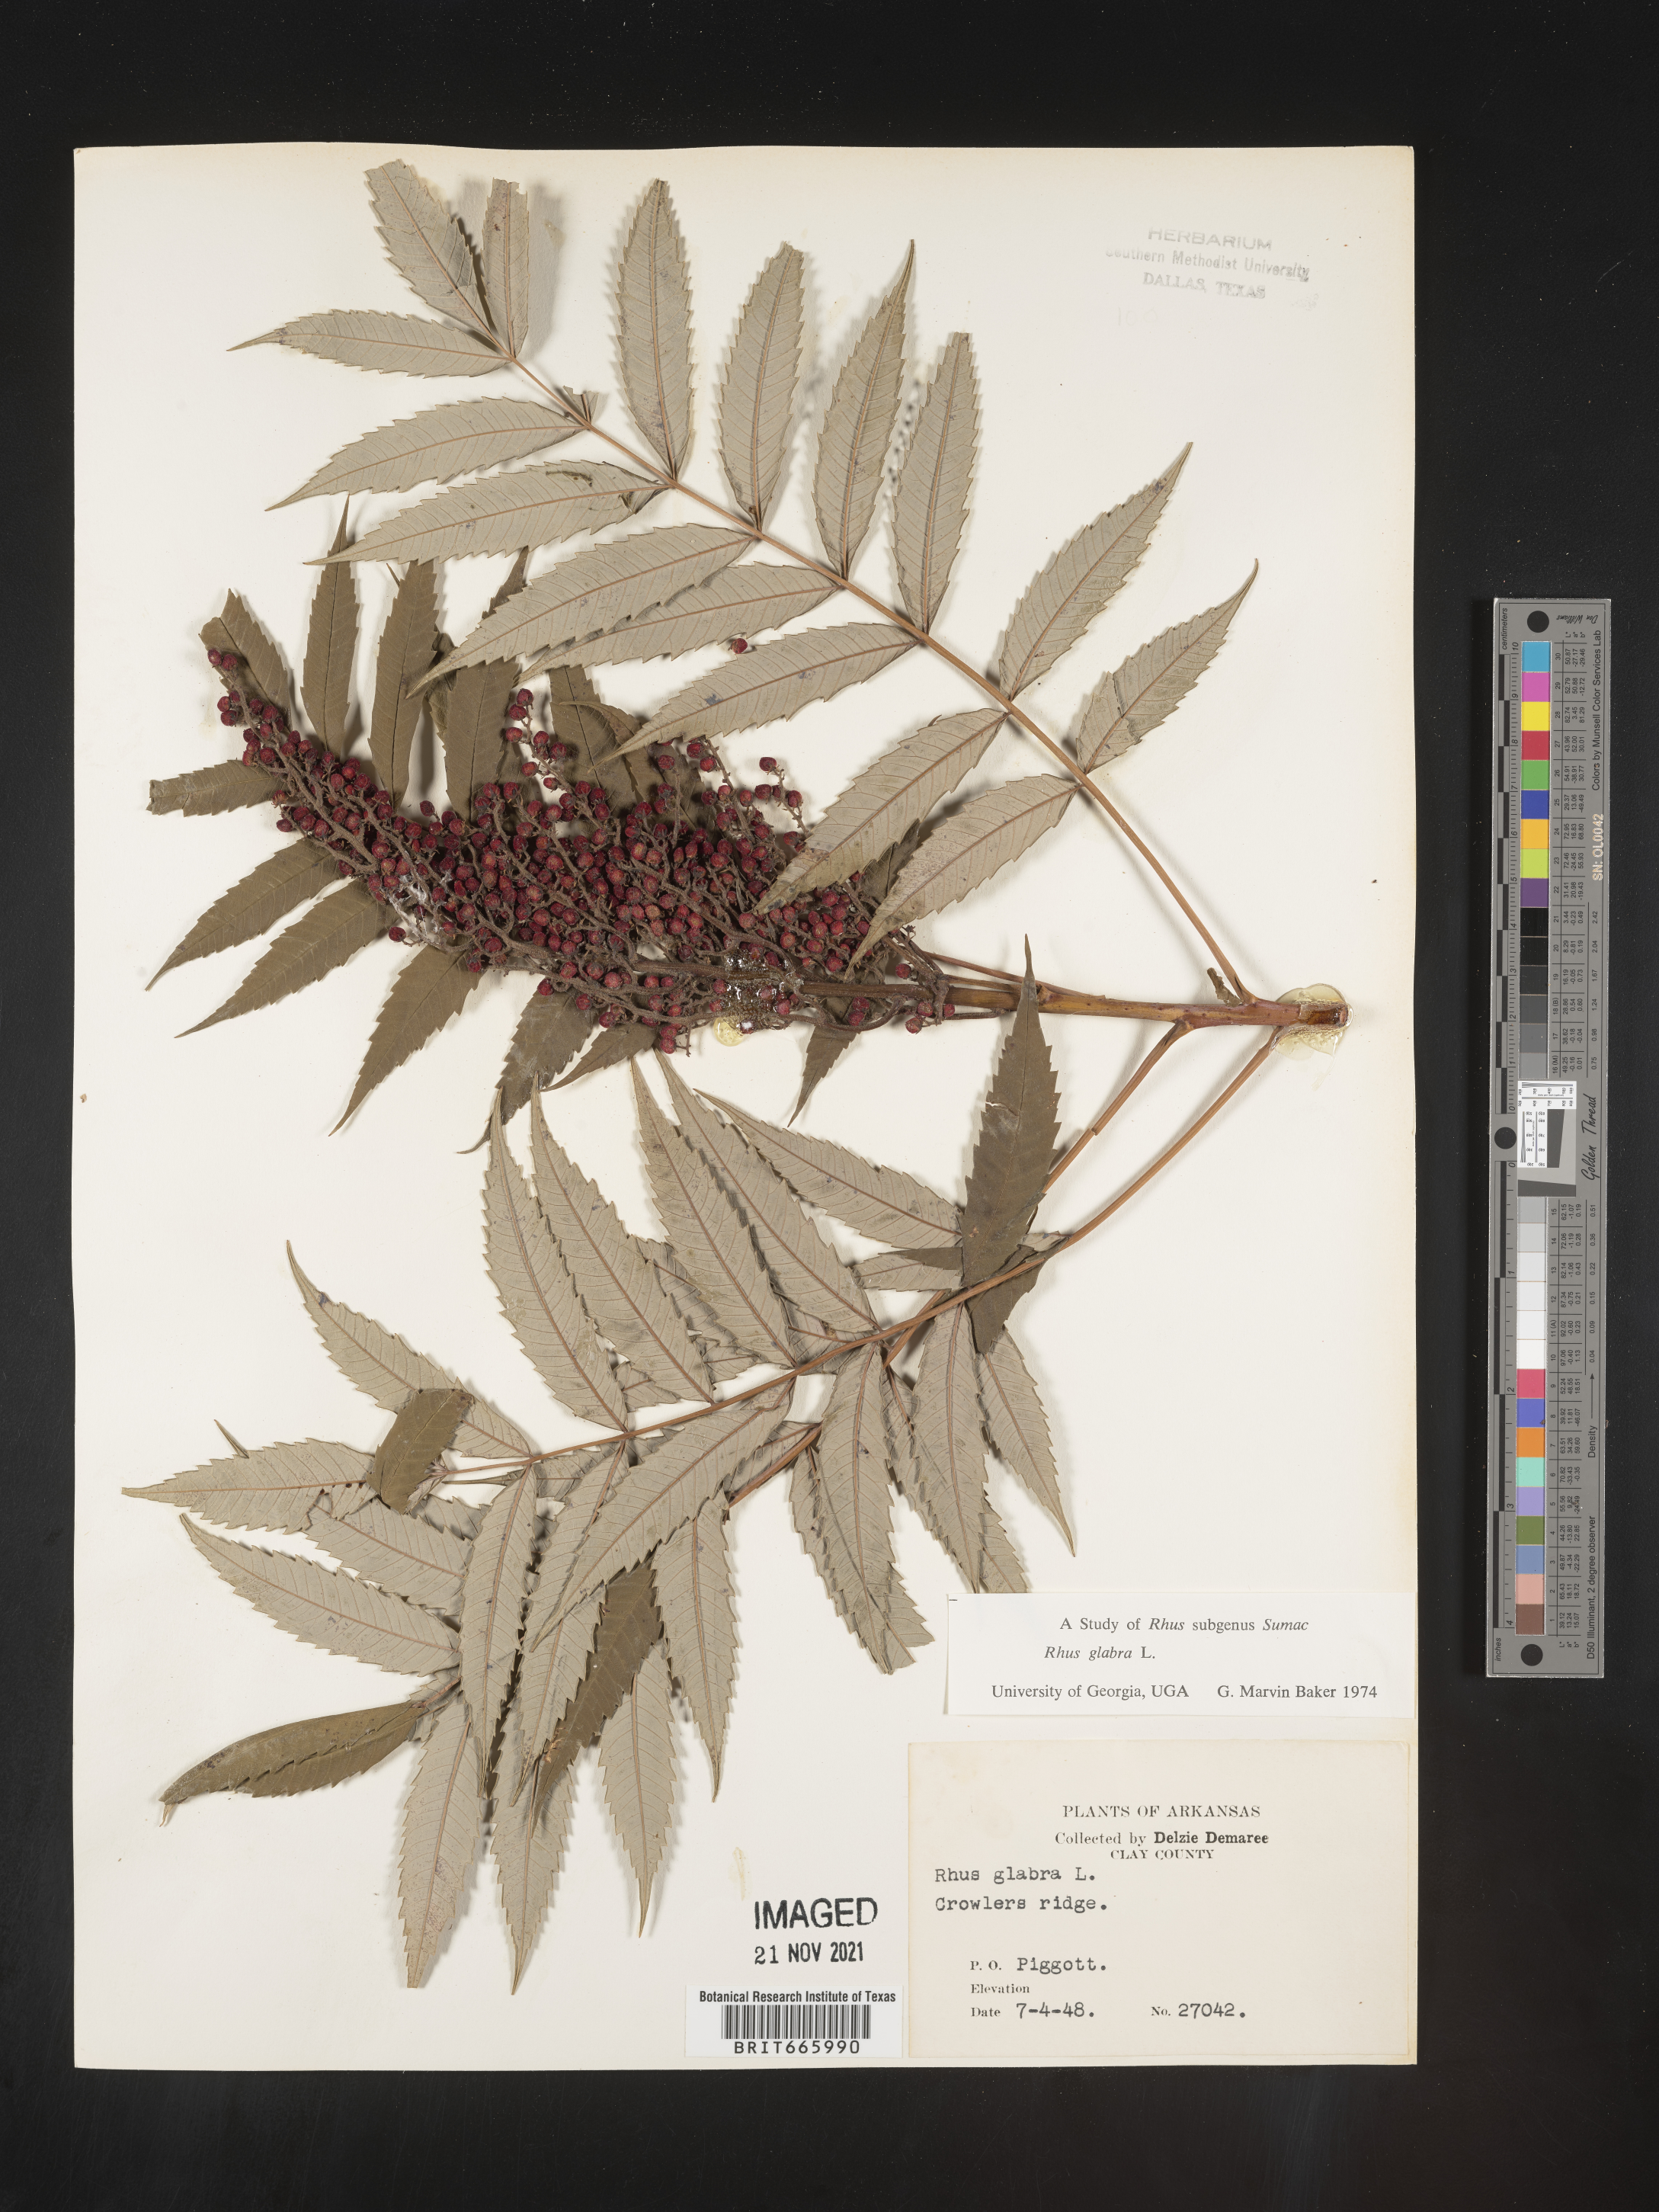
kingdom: Plantae
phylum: Tracheophyta
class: Magnoliopsida
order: Sapindales
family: Anacardiaceae
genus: Rhus
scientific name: Rhus glabra
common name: Scarlet sumac
